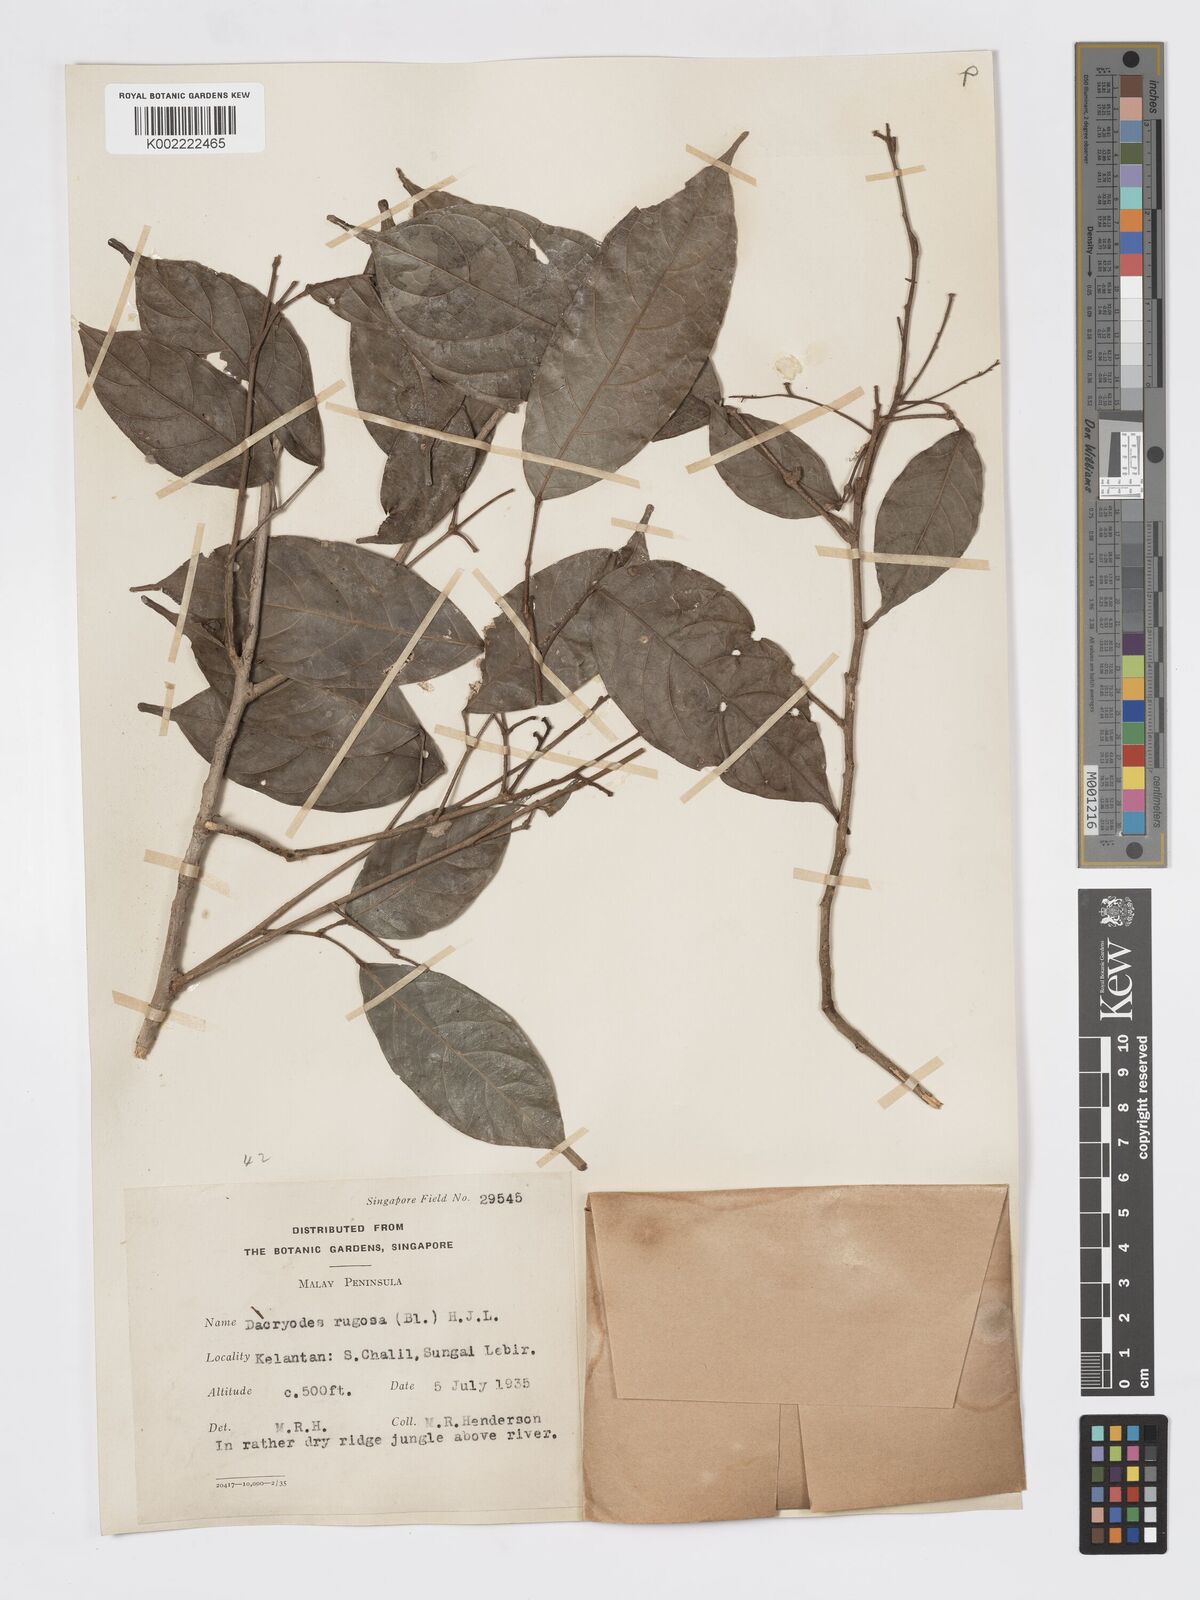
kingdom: Plantae
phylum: Tracheophyta
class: Magnoliopsida
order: Sapindales
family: Burseraceae
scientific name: Burseraceae
